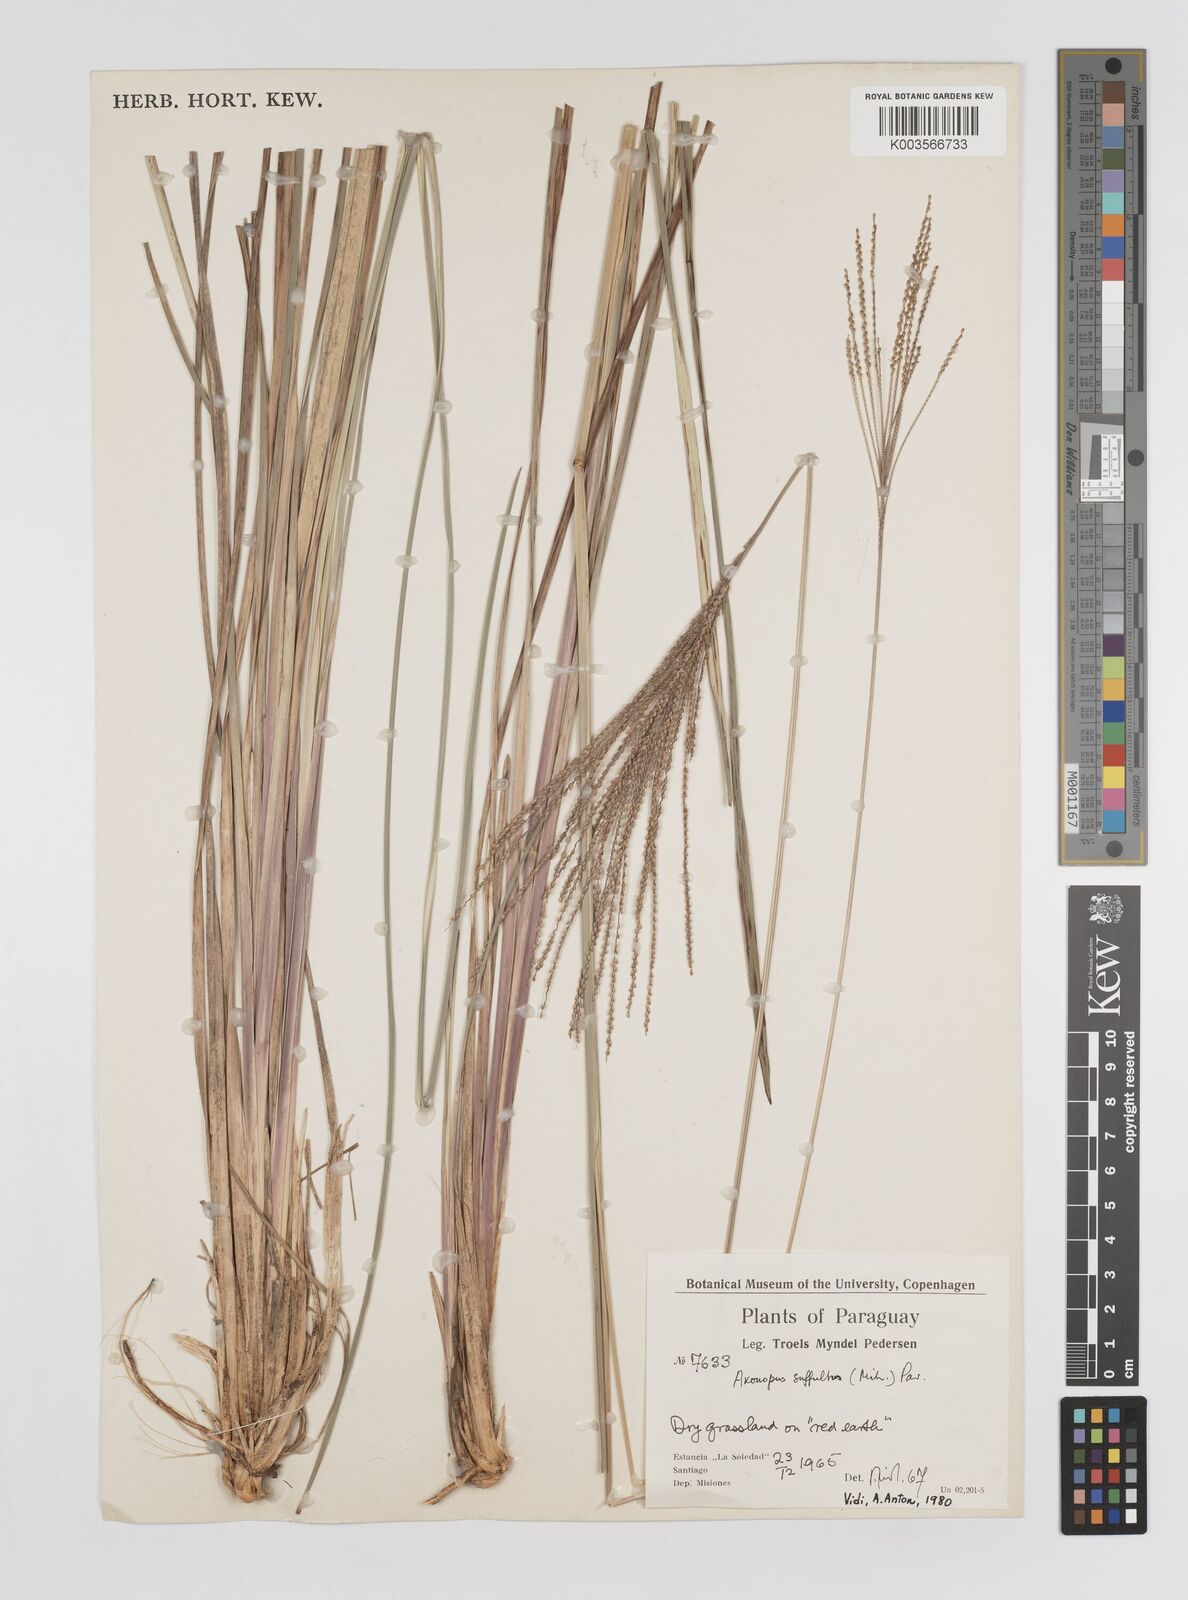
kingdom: Plantae
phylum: Tracheophyta
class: Liliopsida
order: Poales
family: Poaceae
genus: Axonopus
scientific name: Axonopus suffultus
